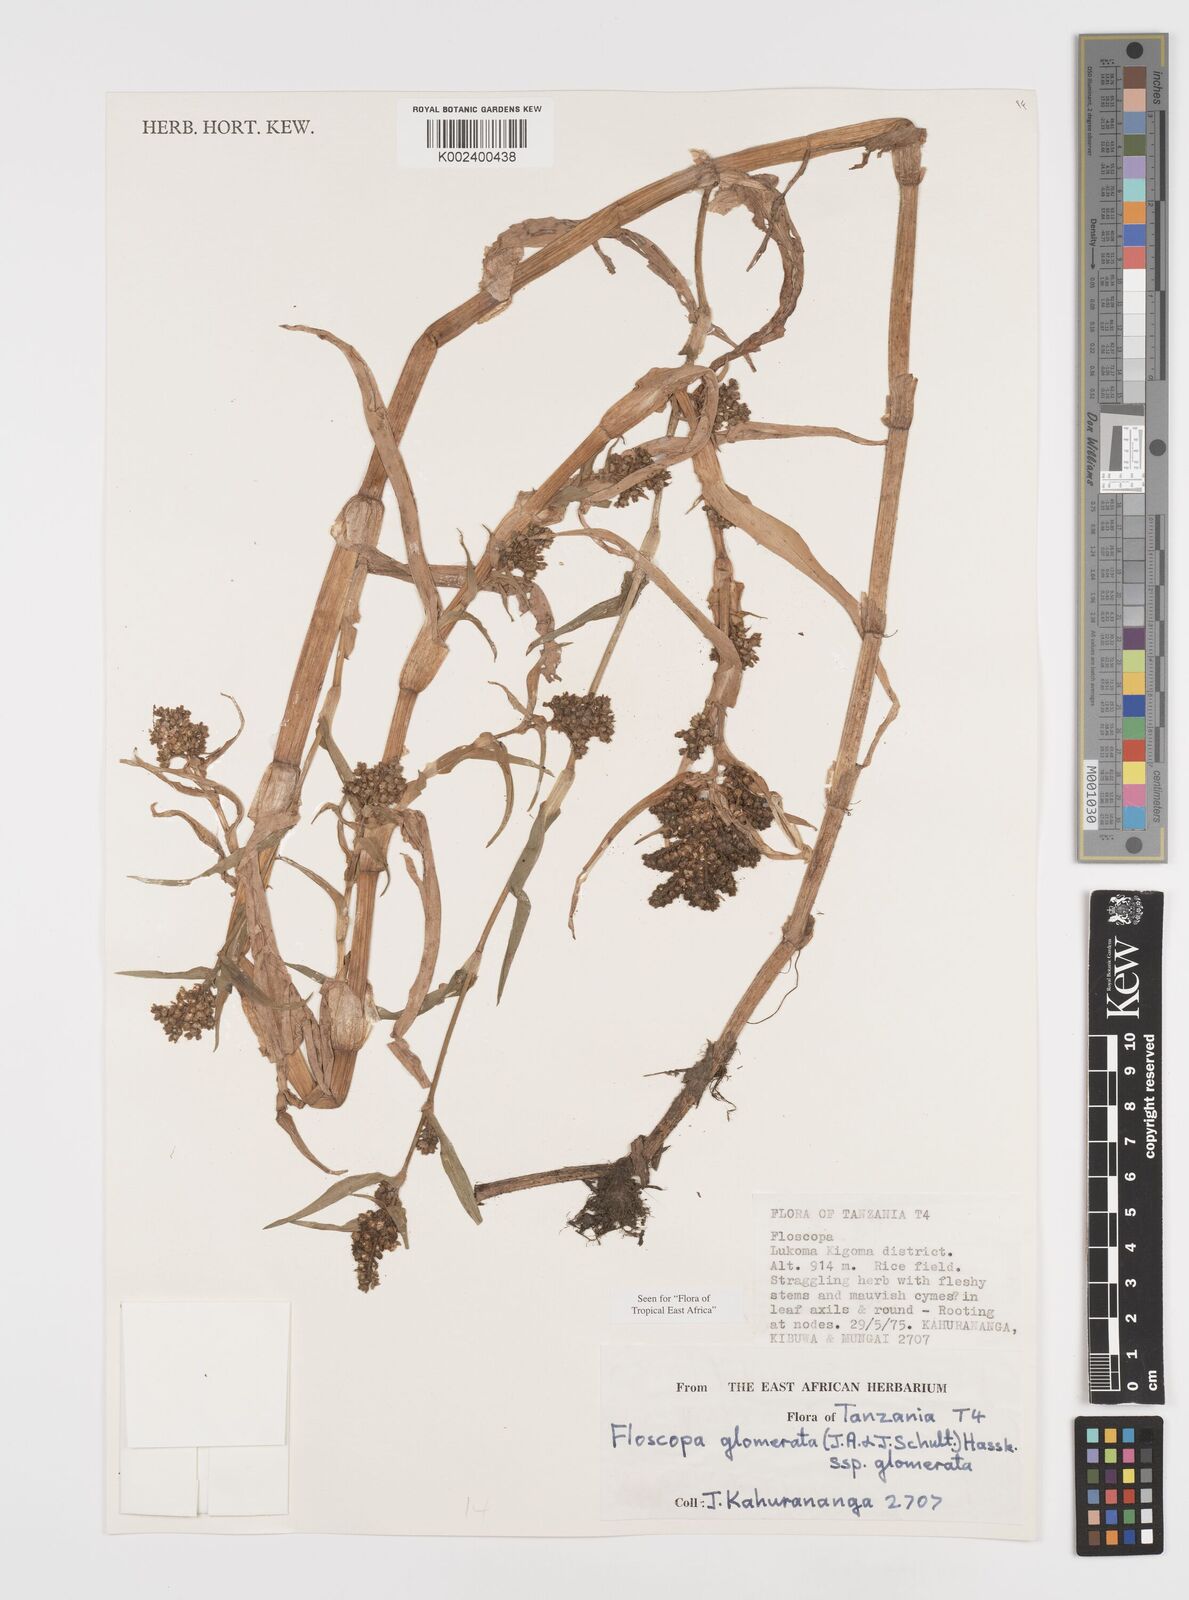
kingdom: Plantae
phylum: Tracheophyta
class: Liliopsida
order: Commelinales
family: Commelinaceae
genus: Floscopa
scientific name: Floscopa glomerata
